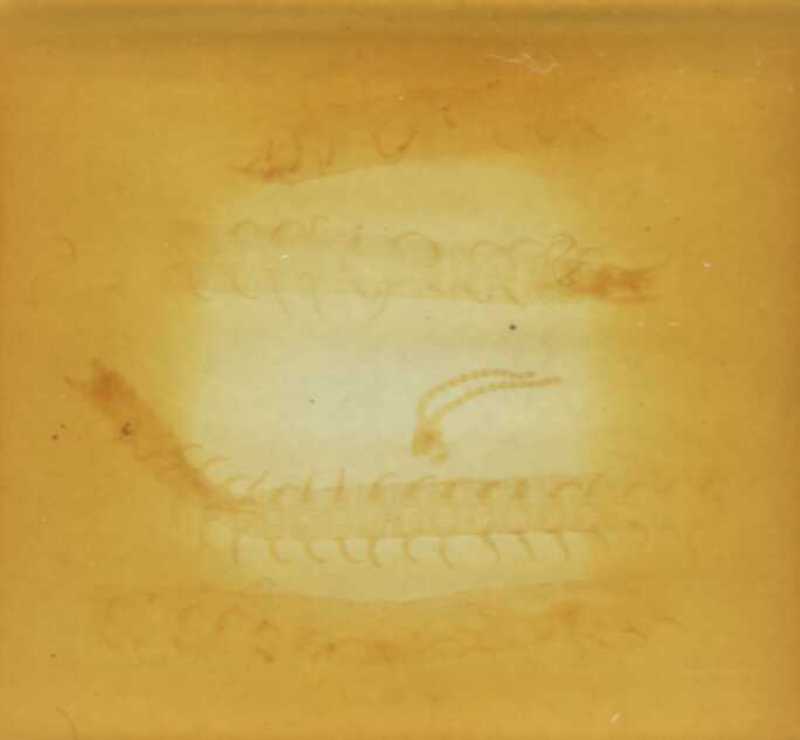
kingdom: Animalia
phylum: Arthropoda
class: Chilopoda
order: Geophilomorpha
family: Geophilidae
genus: Tuoba
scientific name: Tuoba poseidonis
